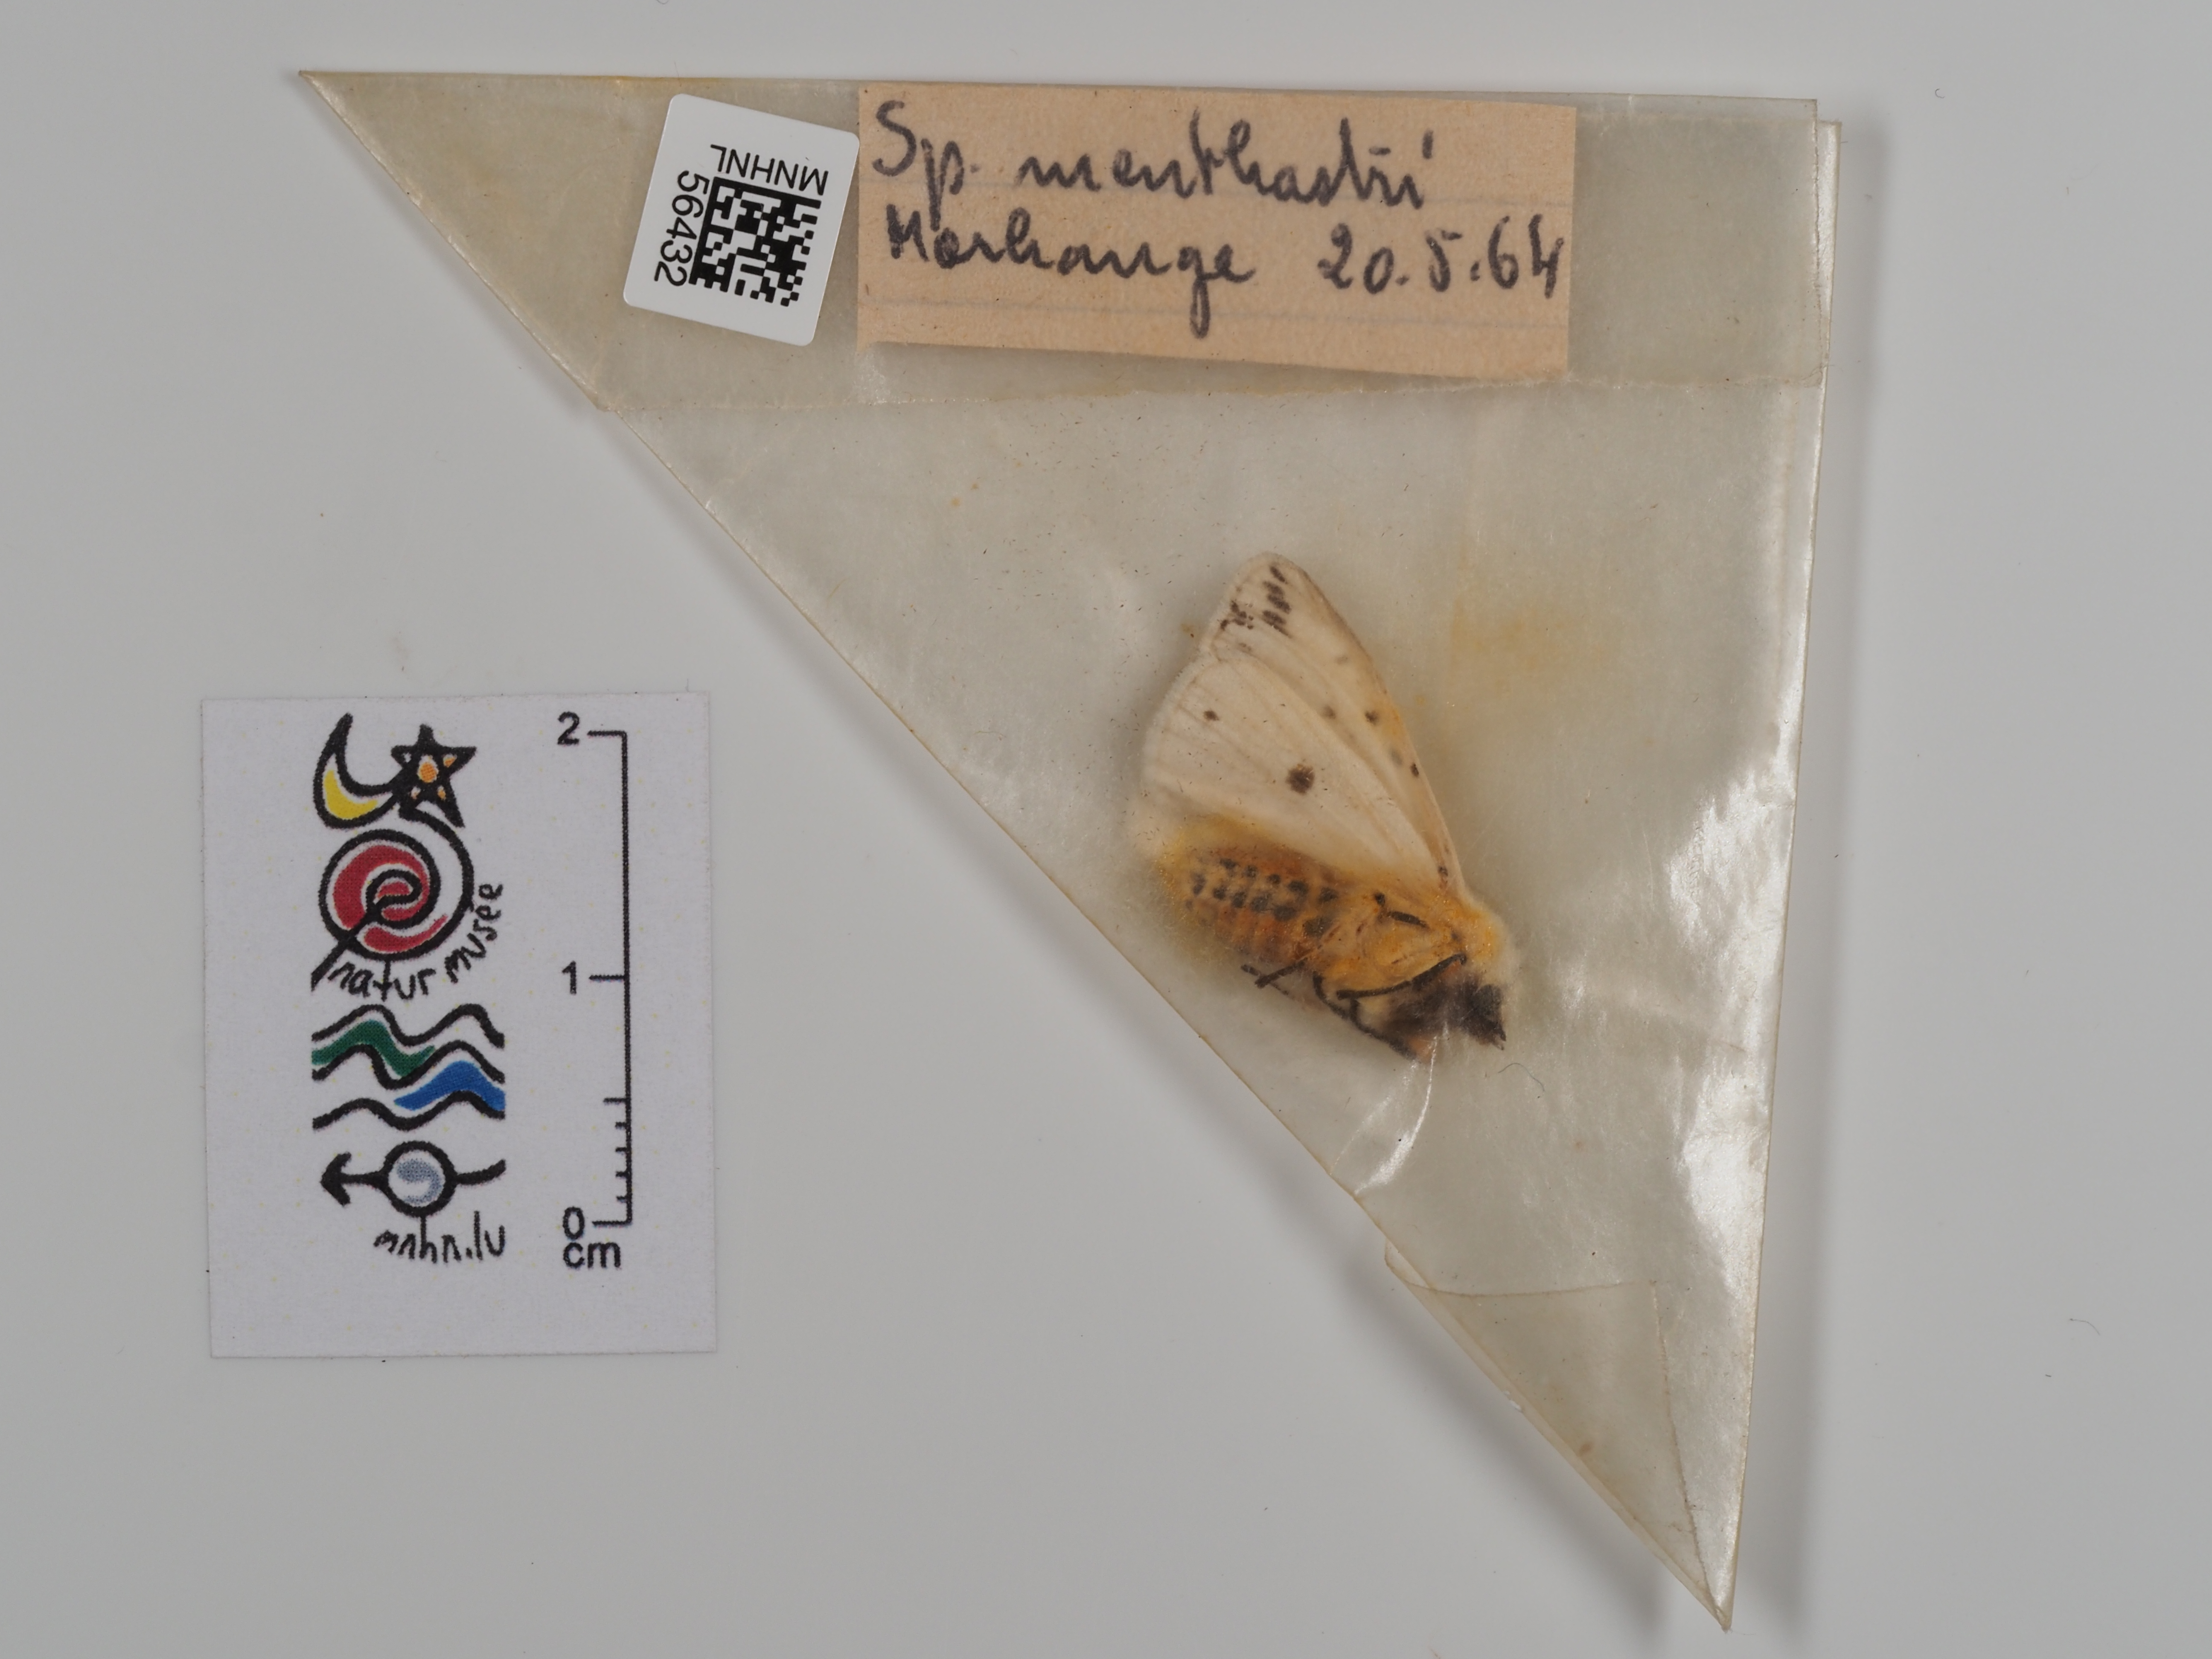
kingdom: Animalia
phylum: Arthropoda
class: Insecta
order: Lepidoptera
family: Erebidae
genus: Spilosoma
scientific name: Spilosoma lubricipeda
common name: White ermine
